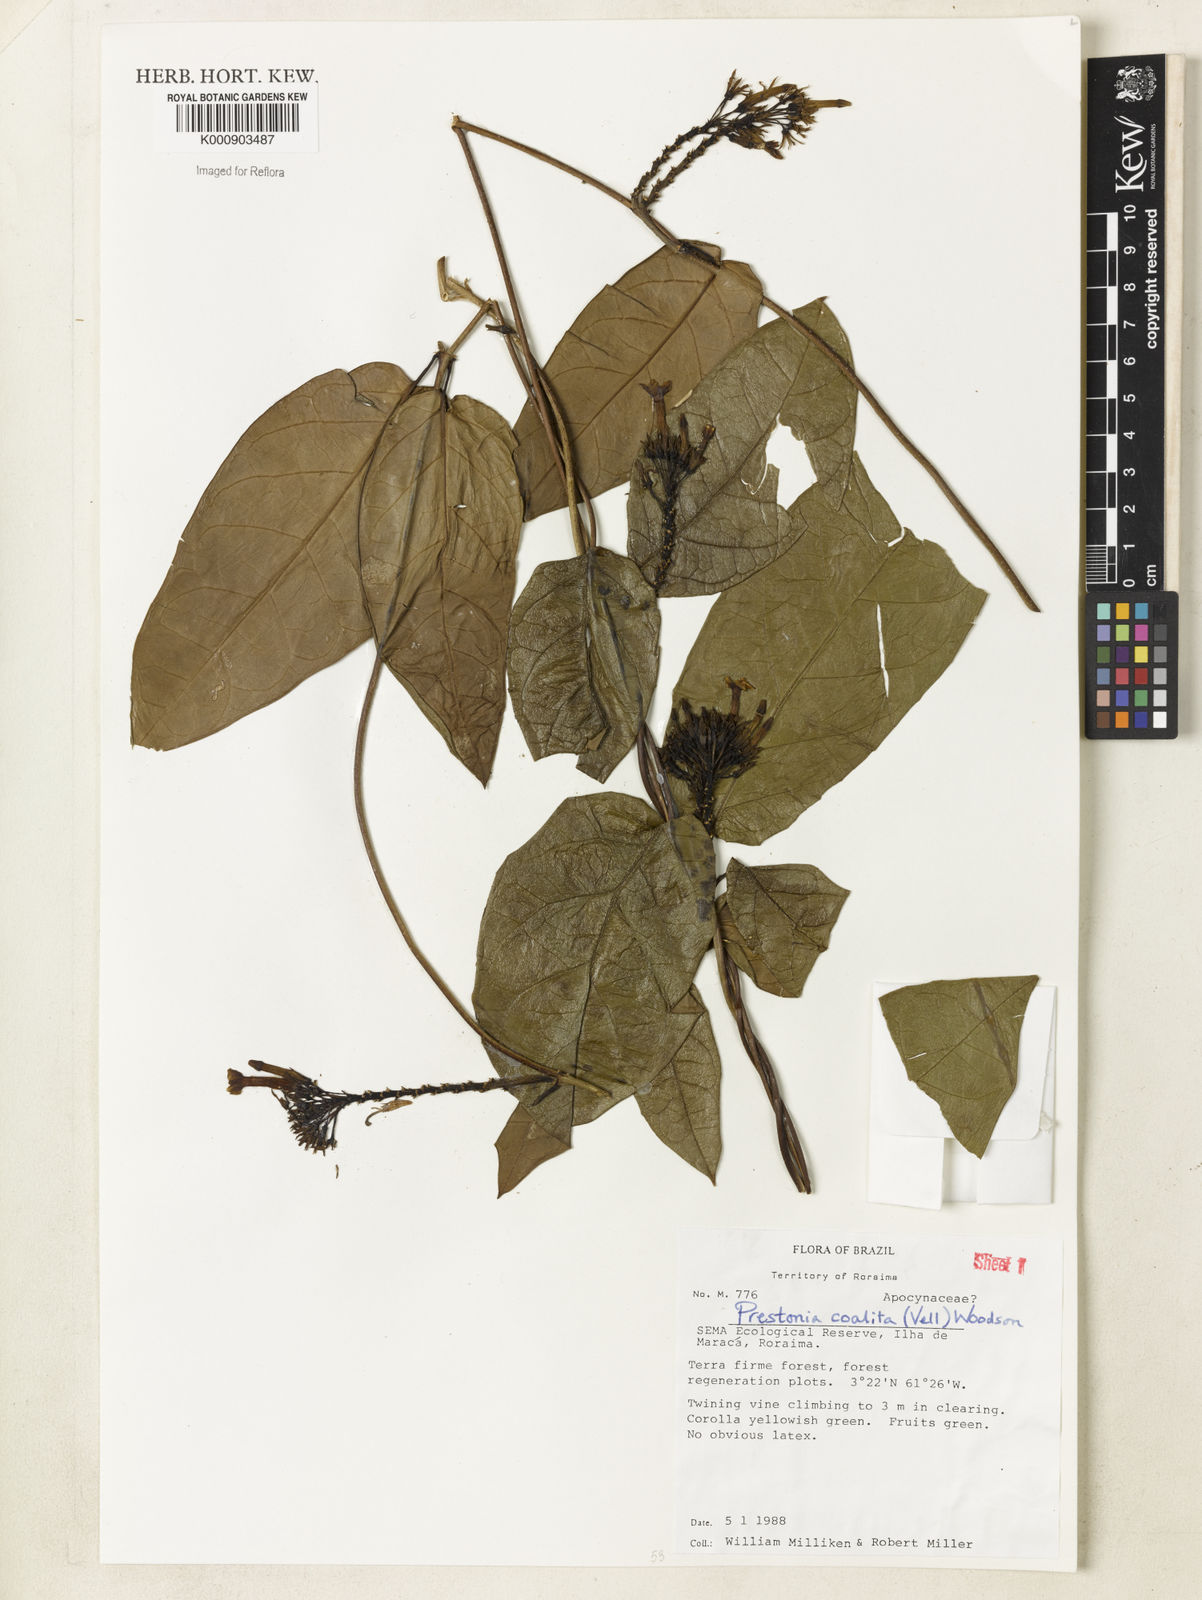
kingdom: Plantae
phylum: Tracheophyta
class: Magnoliopsida
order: Gentianales
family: Apocynaceae
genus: Prestonia
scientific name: Prestonia coalita
